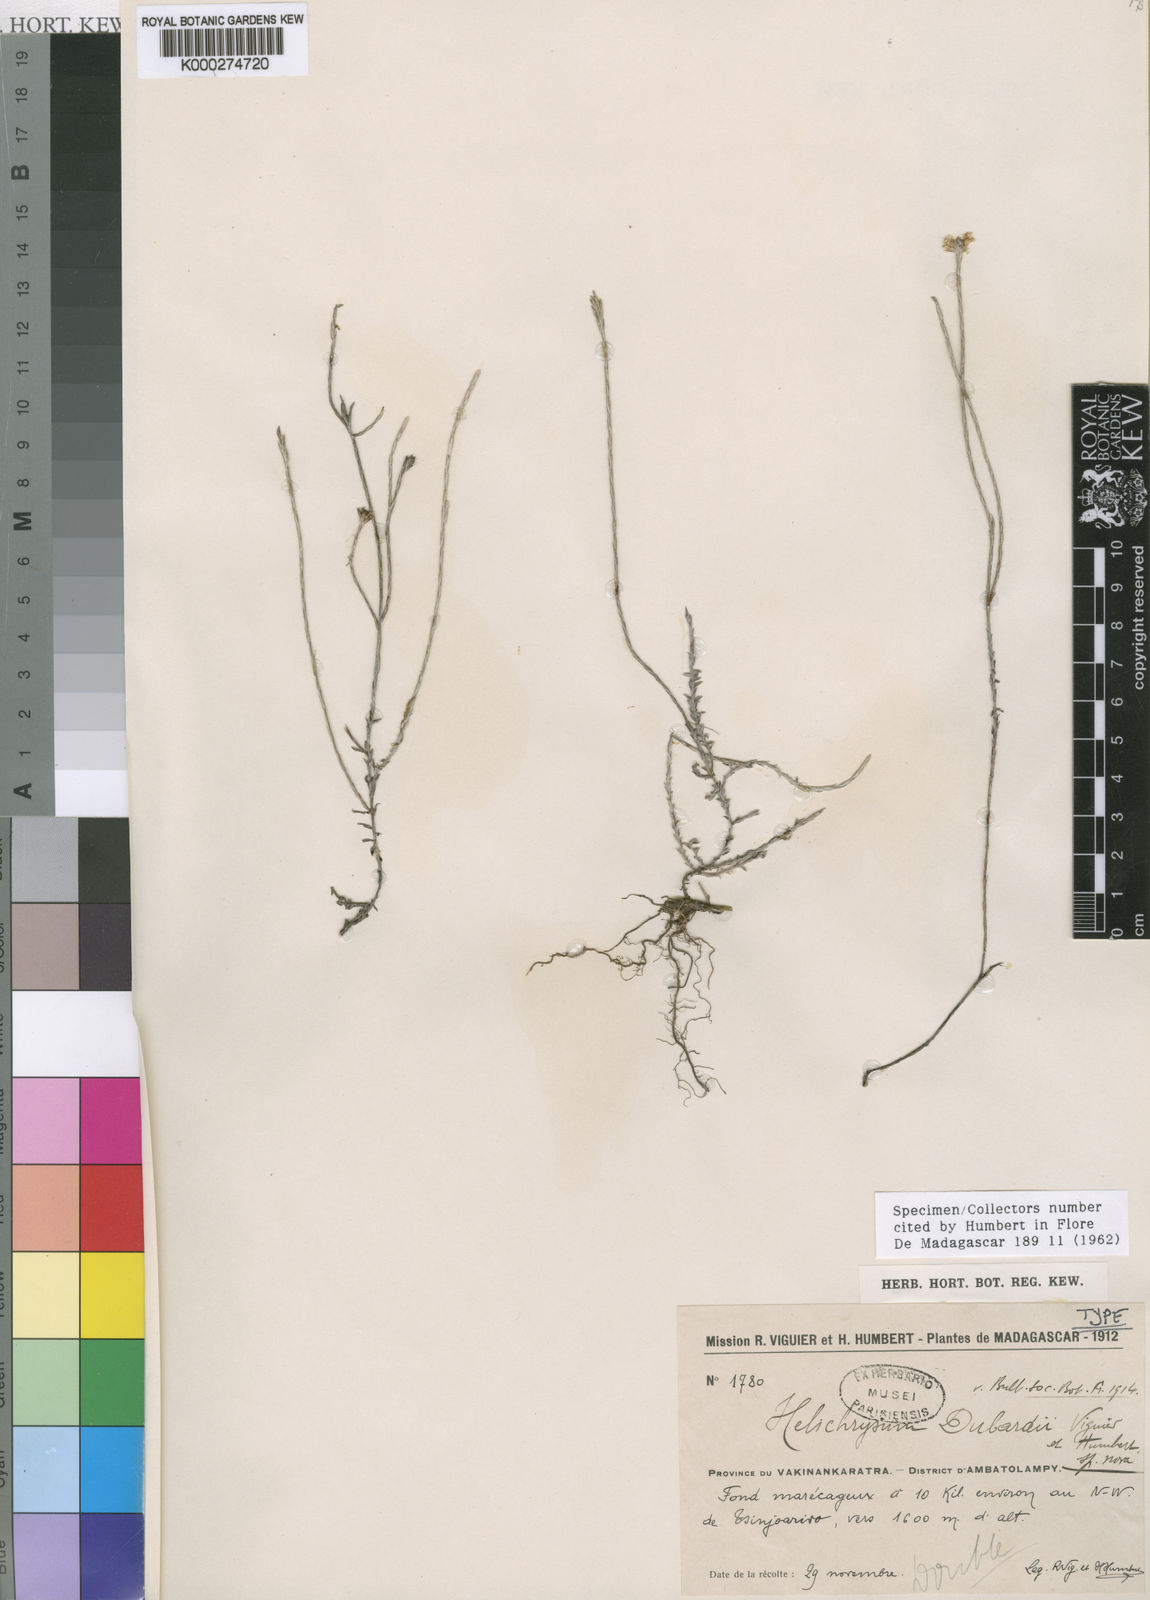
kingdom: Plantae
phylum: Tracheophyta
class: Magnoliopsida
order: Asterales
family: Asteraceae
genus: Helichrysum
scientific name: Helichrysum dubardii
